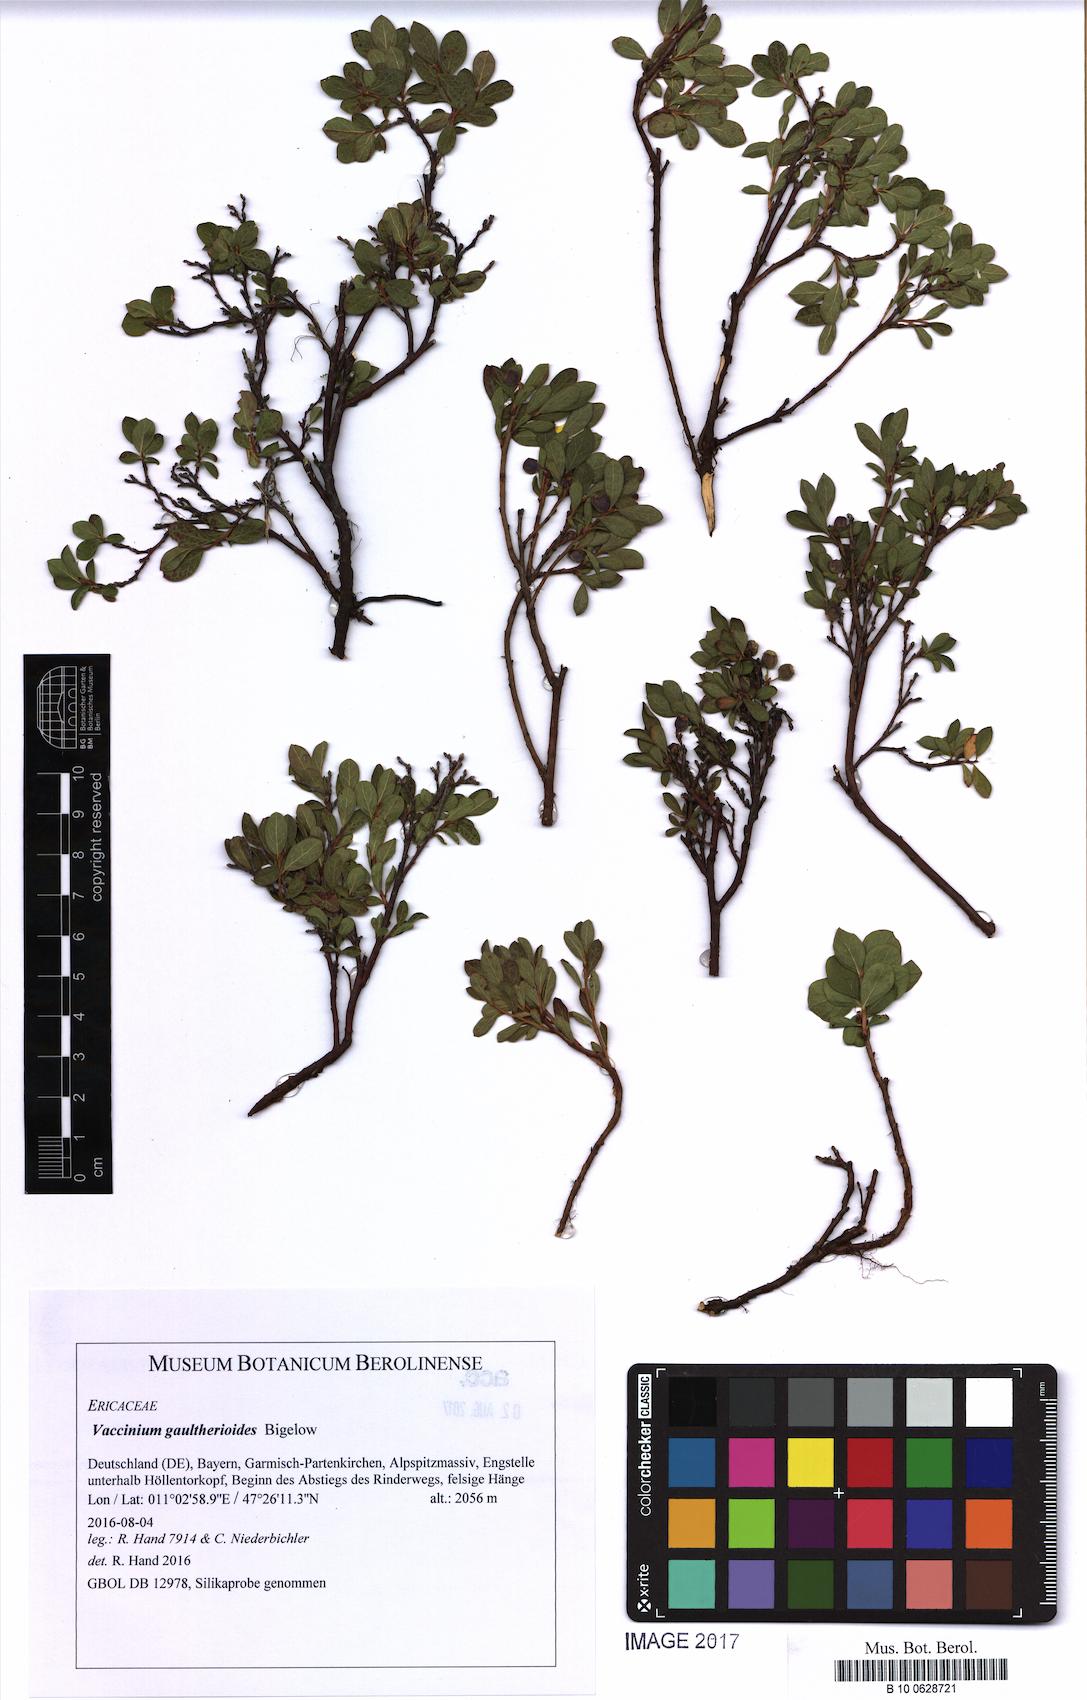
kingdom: Plantae
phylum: Tracheophyta
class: Magnoliopsida
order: Ericales
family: Ericaceae
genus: Vaccinium
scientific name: Vaccinium gaultherioides
